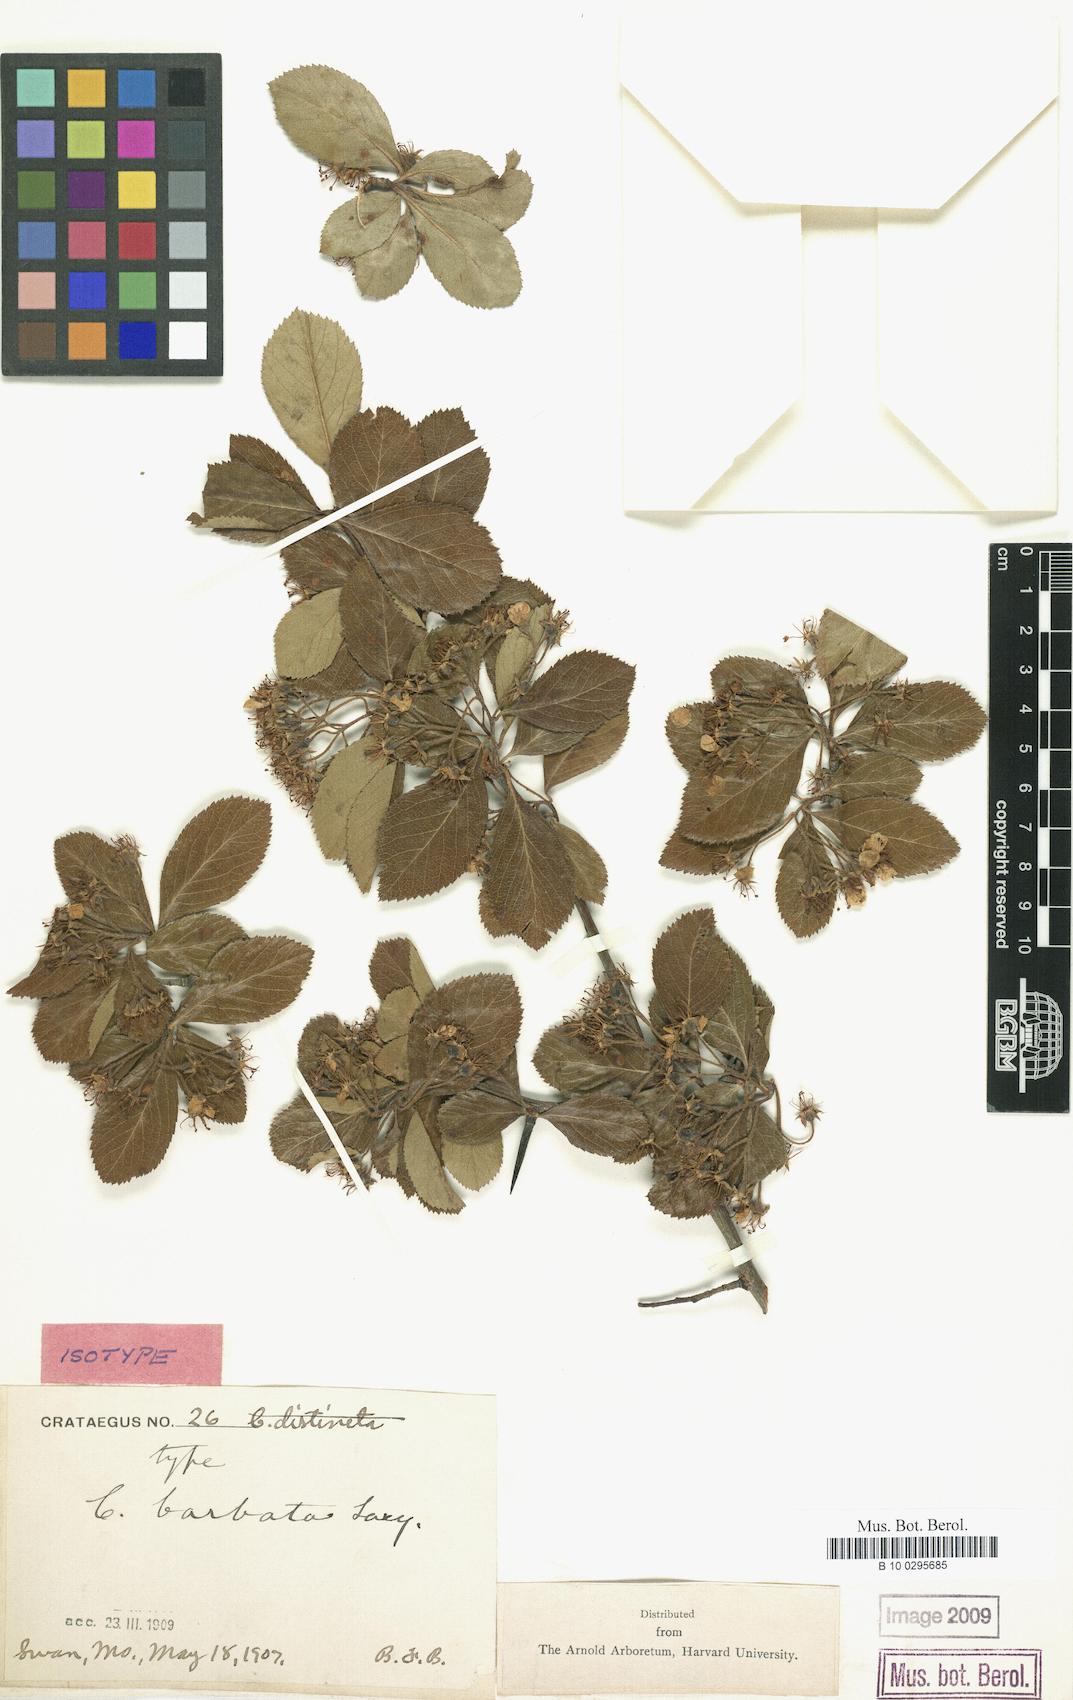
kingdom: Plantae
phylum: Tracheophyta
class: Magnoliopsida
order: Rosales
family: Rosaceae
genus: Crataegus
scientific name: Crataegus barbata
